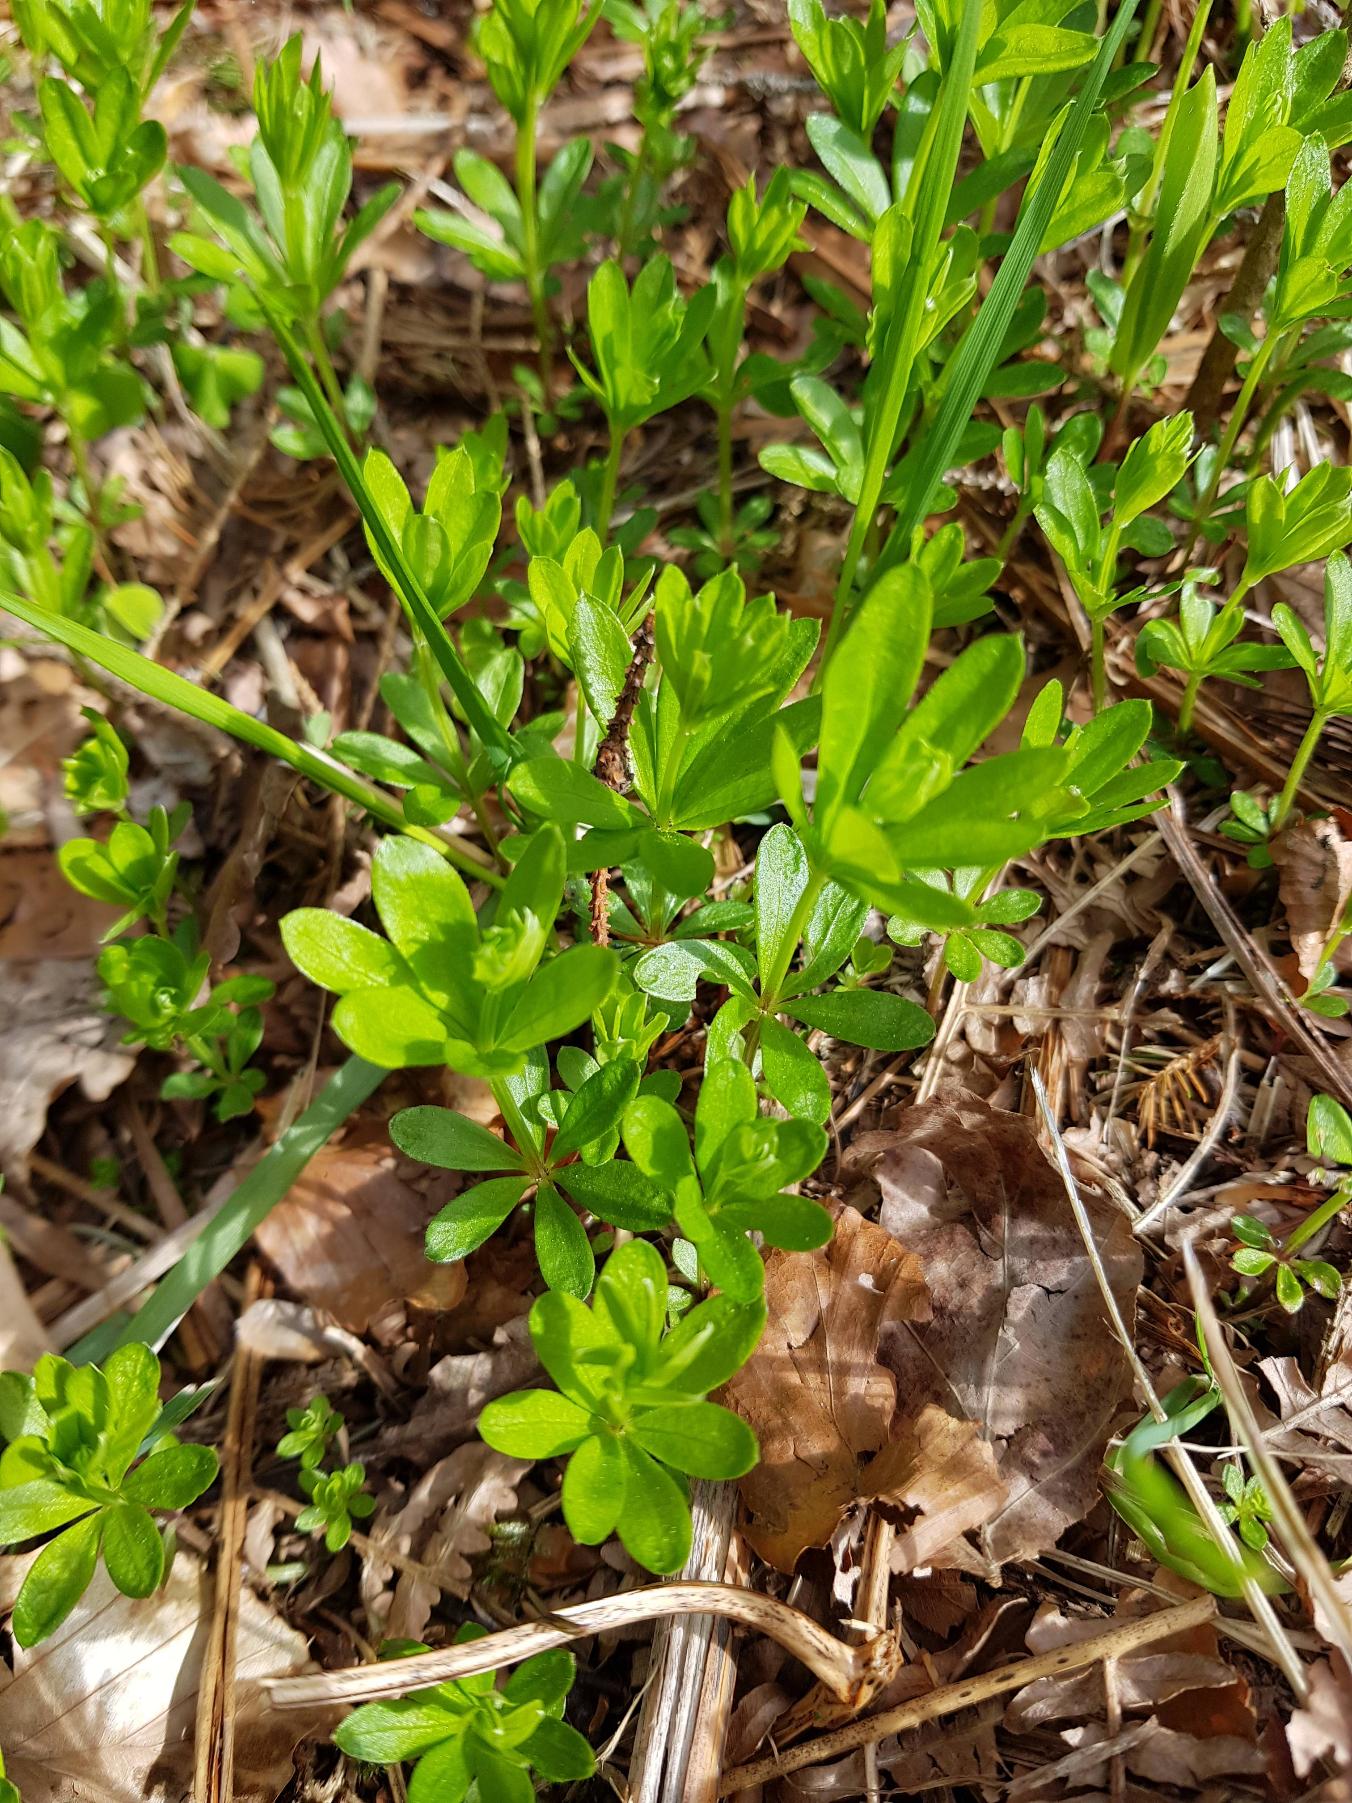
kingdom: Plantae
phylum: Tracheophyta
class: Magnoliopsida
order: Gentianales
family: Rubiaceae
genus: Galium
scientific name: Galium odoratum
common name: Skovmærke
